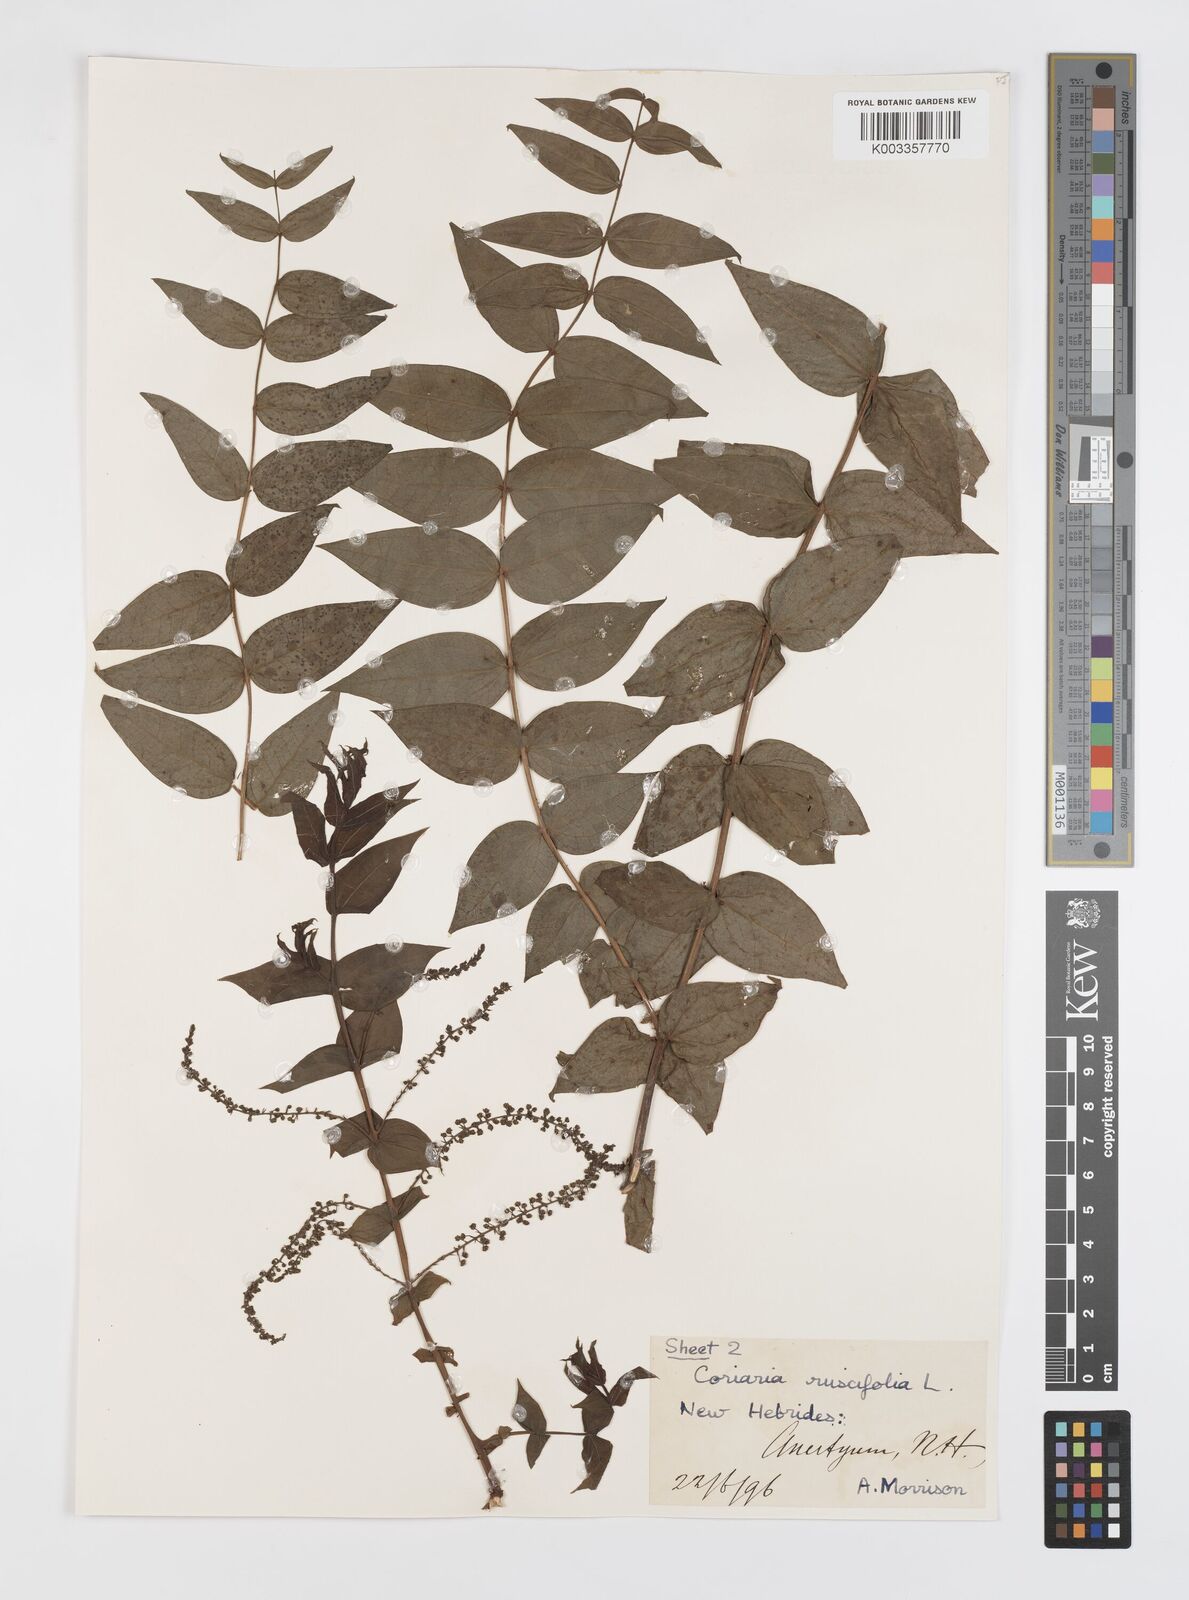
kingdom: Plantae
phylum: Tracheophyta
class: Magnoliopsida
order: Cucurbitales
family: Coriariaceae
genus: Coriaria
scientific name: Coriaria ruscifolia
